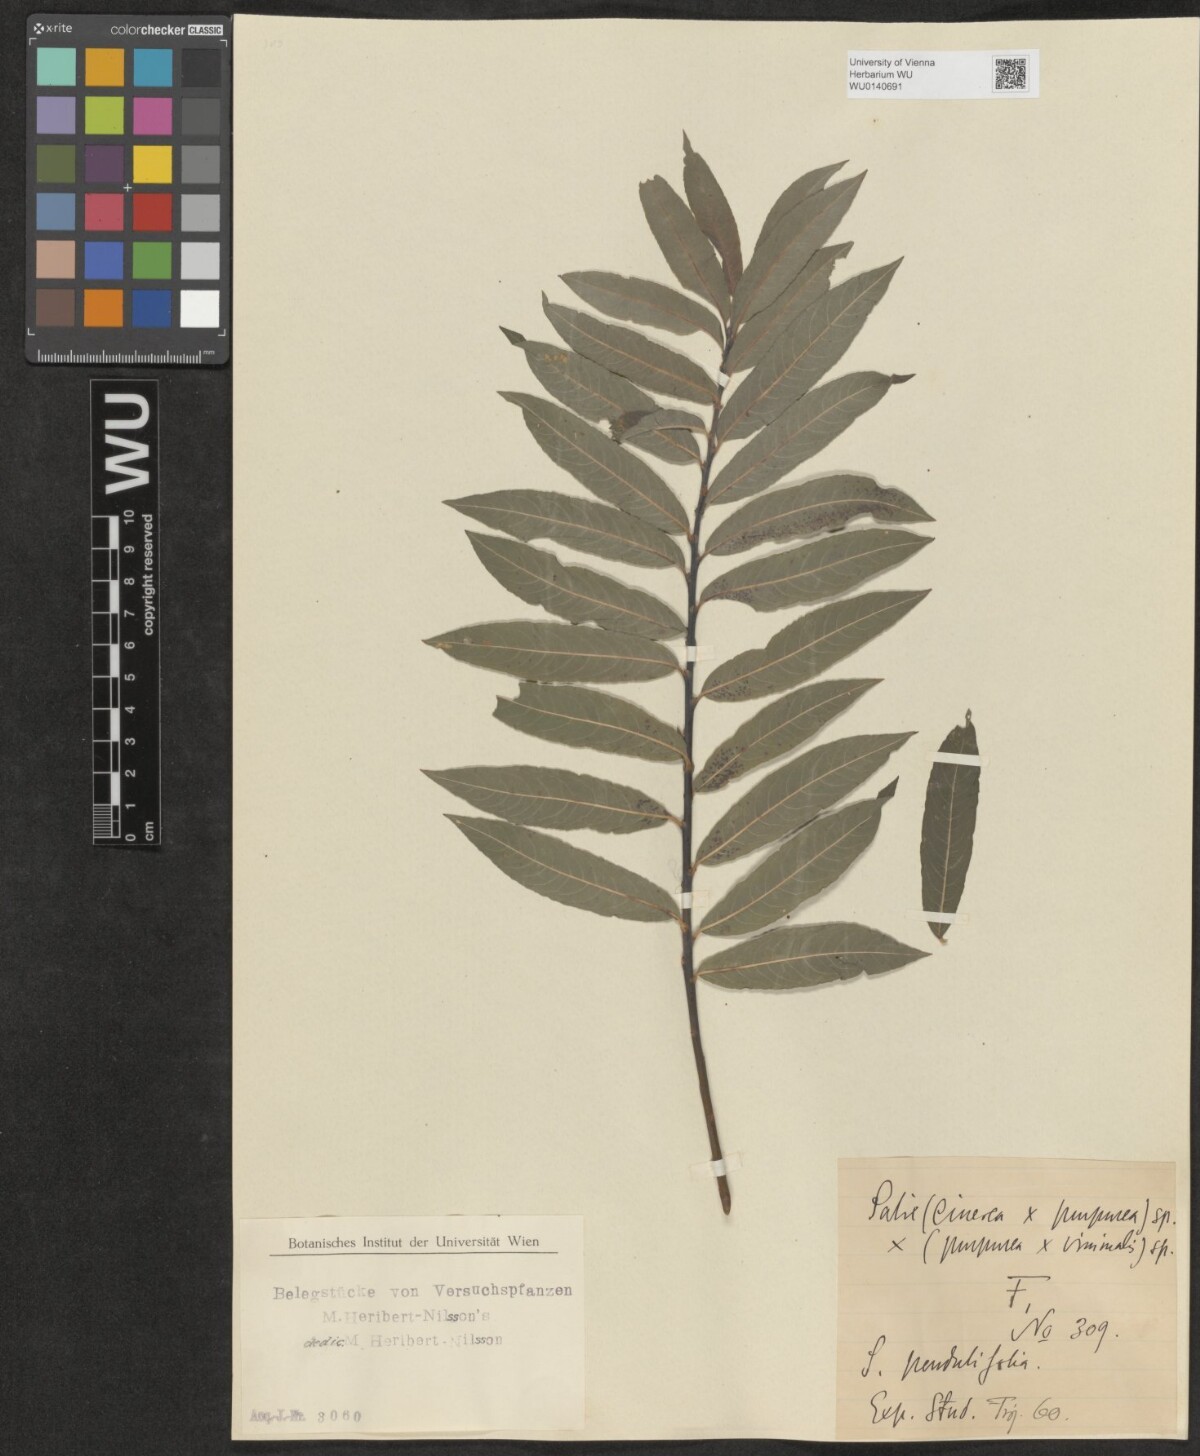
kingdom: Plantae
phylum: Tracheophyta
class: Magnoliopsida
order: Malpighiales
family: Salicaceae
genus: Salix
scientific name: Salix
